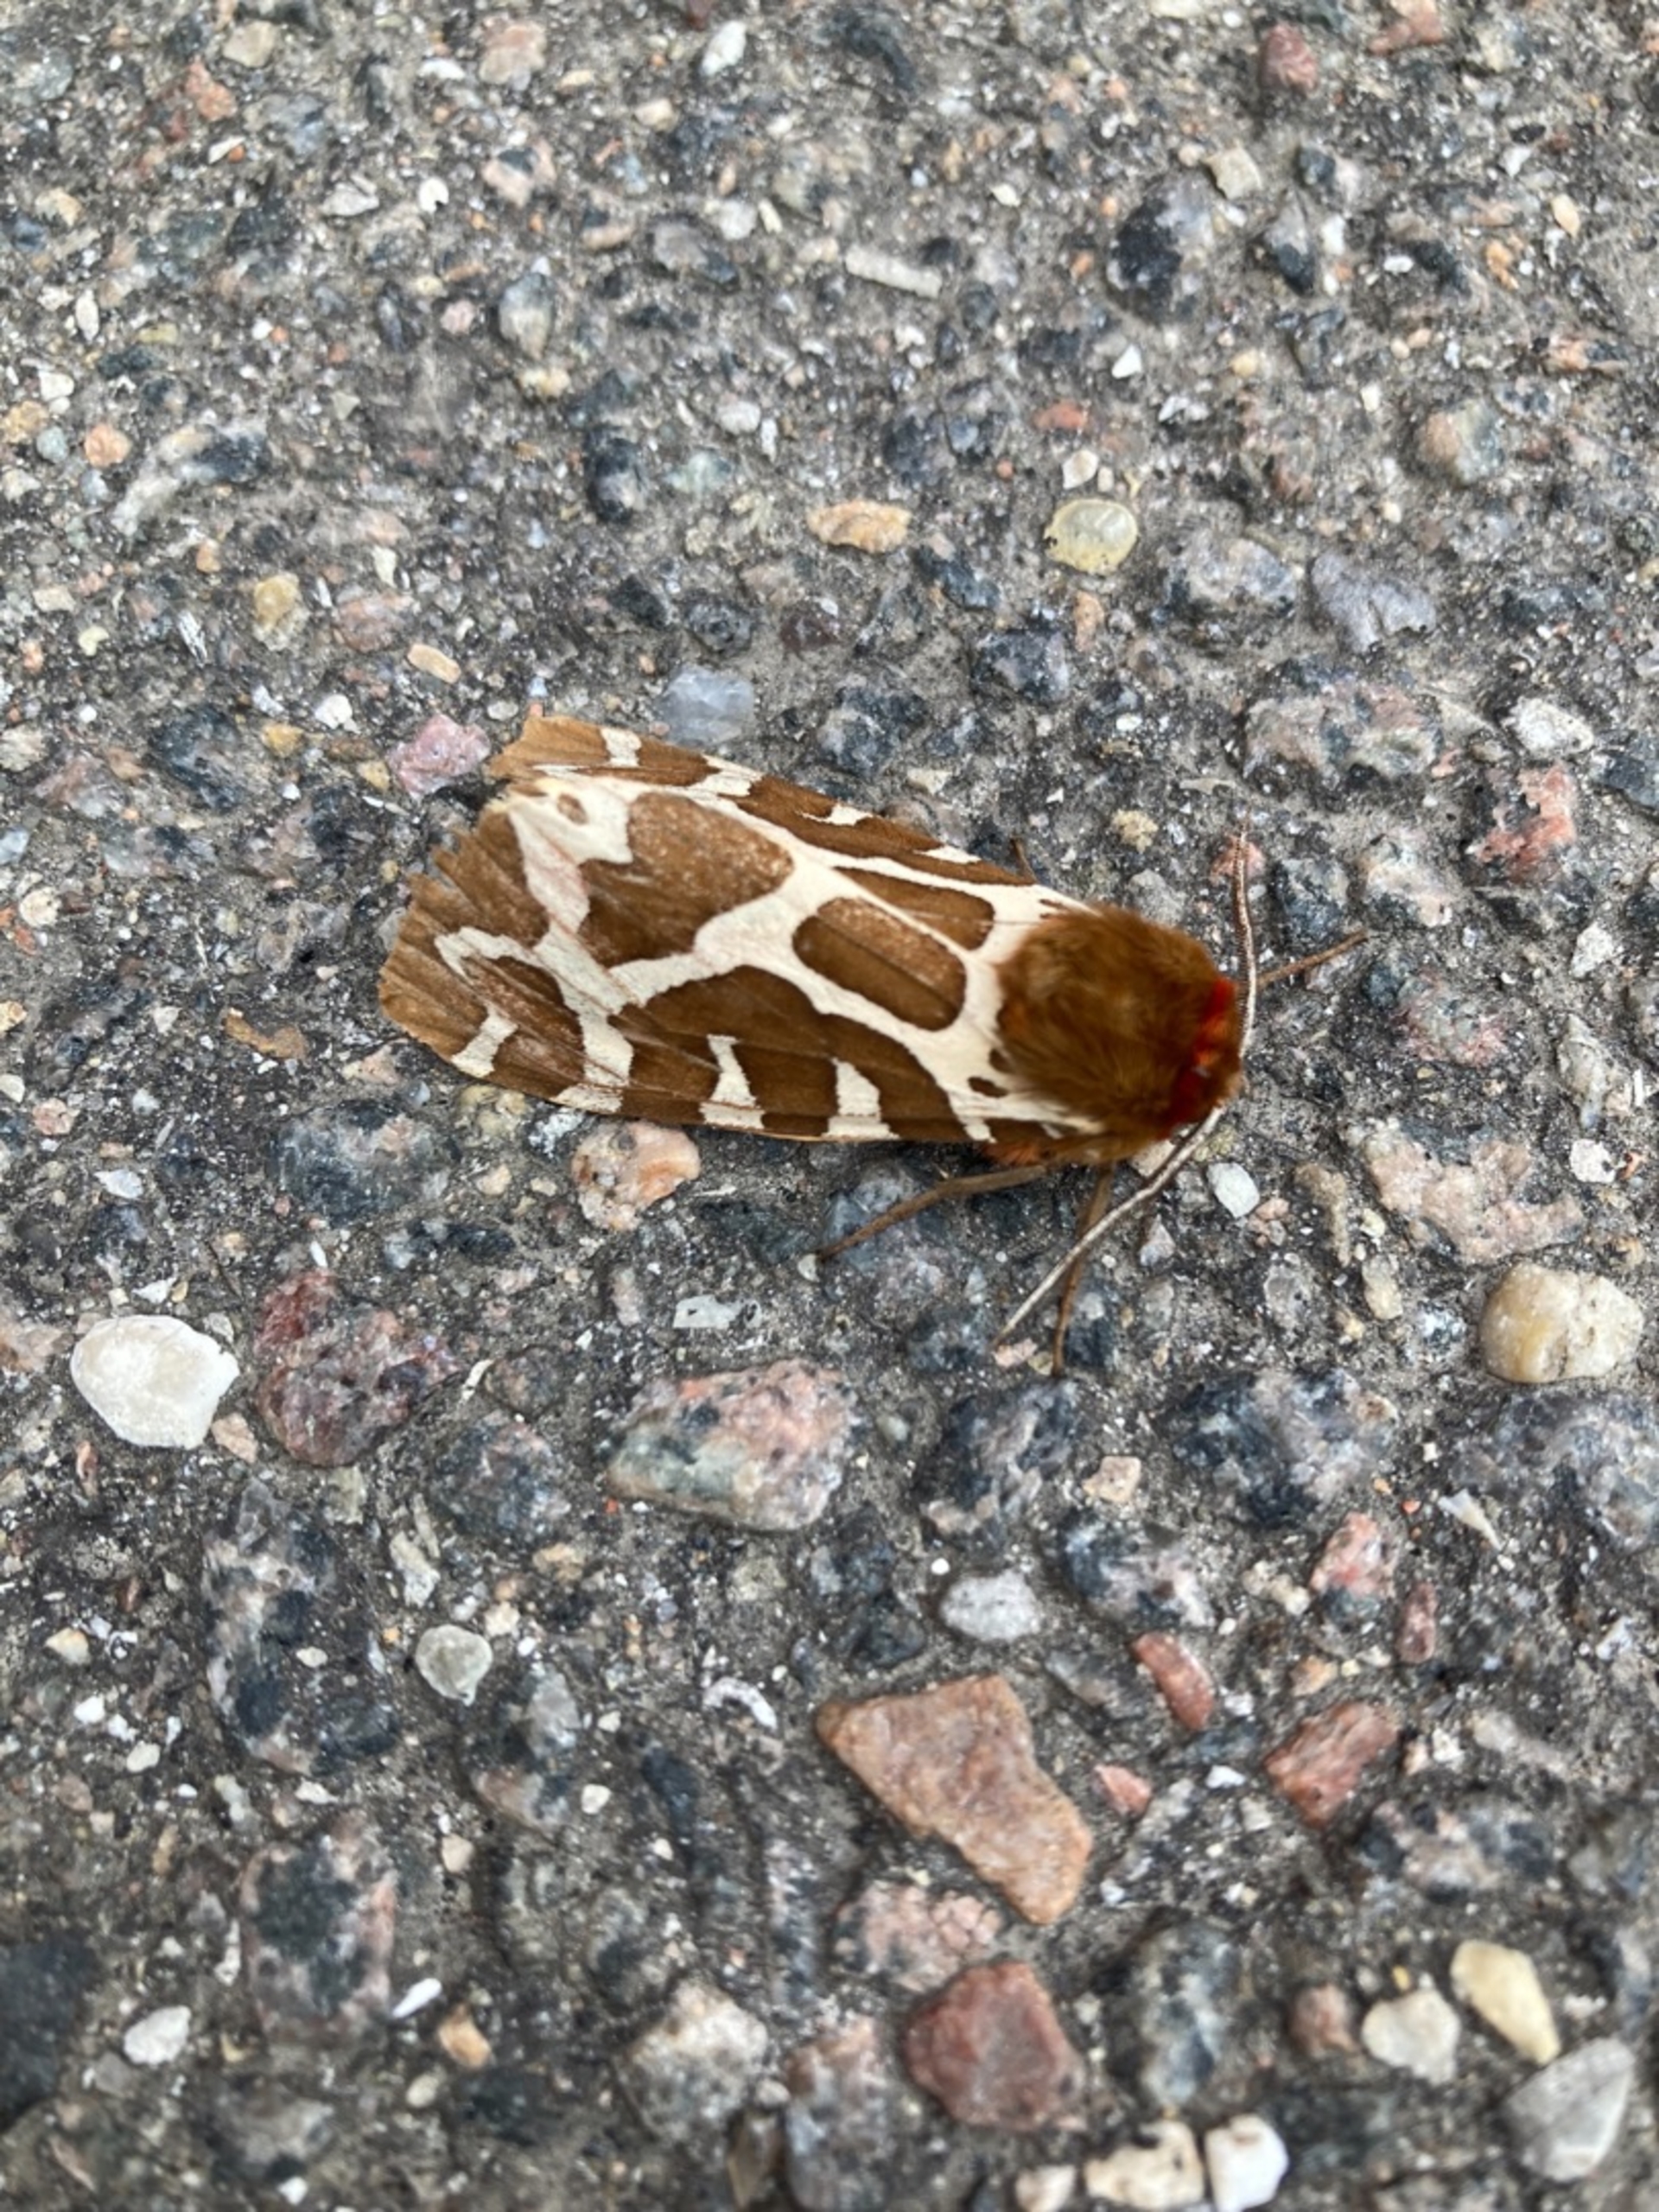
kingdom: Animalia
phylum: Arthropoda
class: Insecta
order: Lepidoptera
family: Erebidae
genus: Arctia
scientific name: Arctia caja
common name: Brun bjørn
